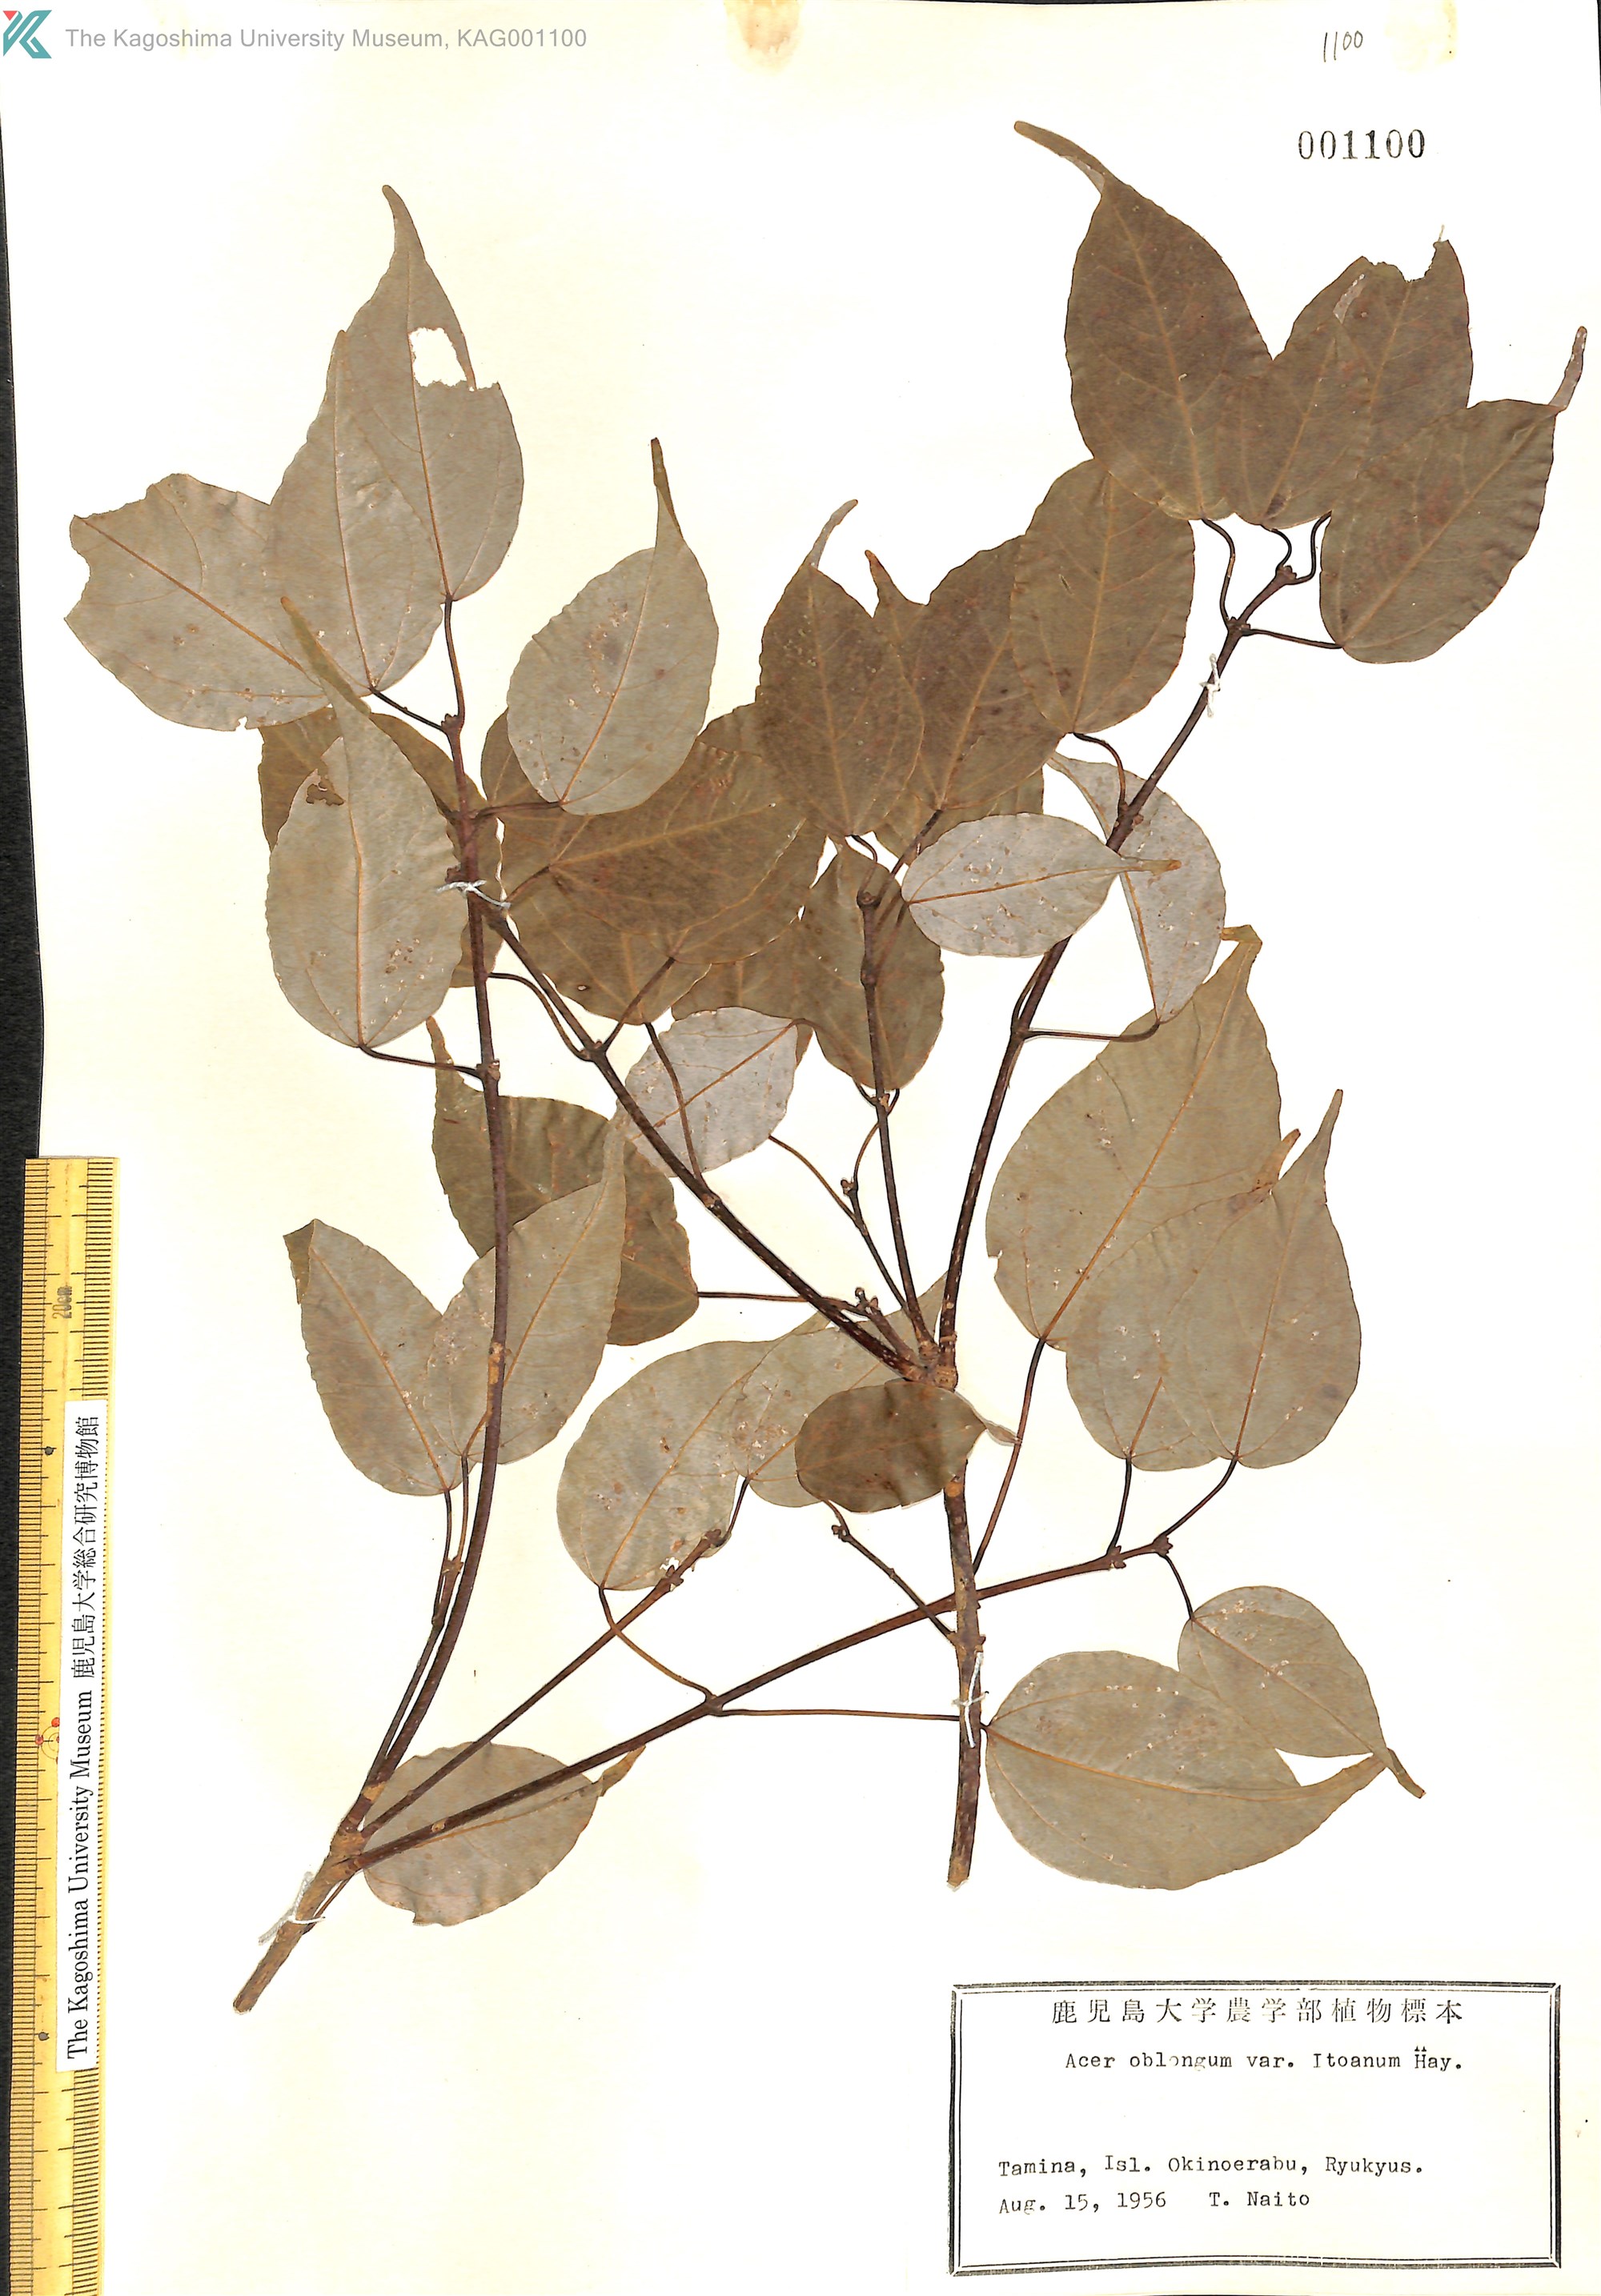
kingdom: Plantae
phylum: Tracheophyta
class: Magnoliopsida
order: Sapindales
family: Sapindaceae
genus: Acer
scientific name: Acer oblongum
